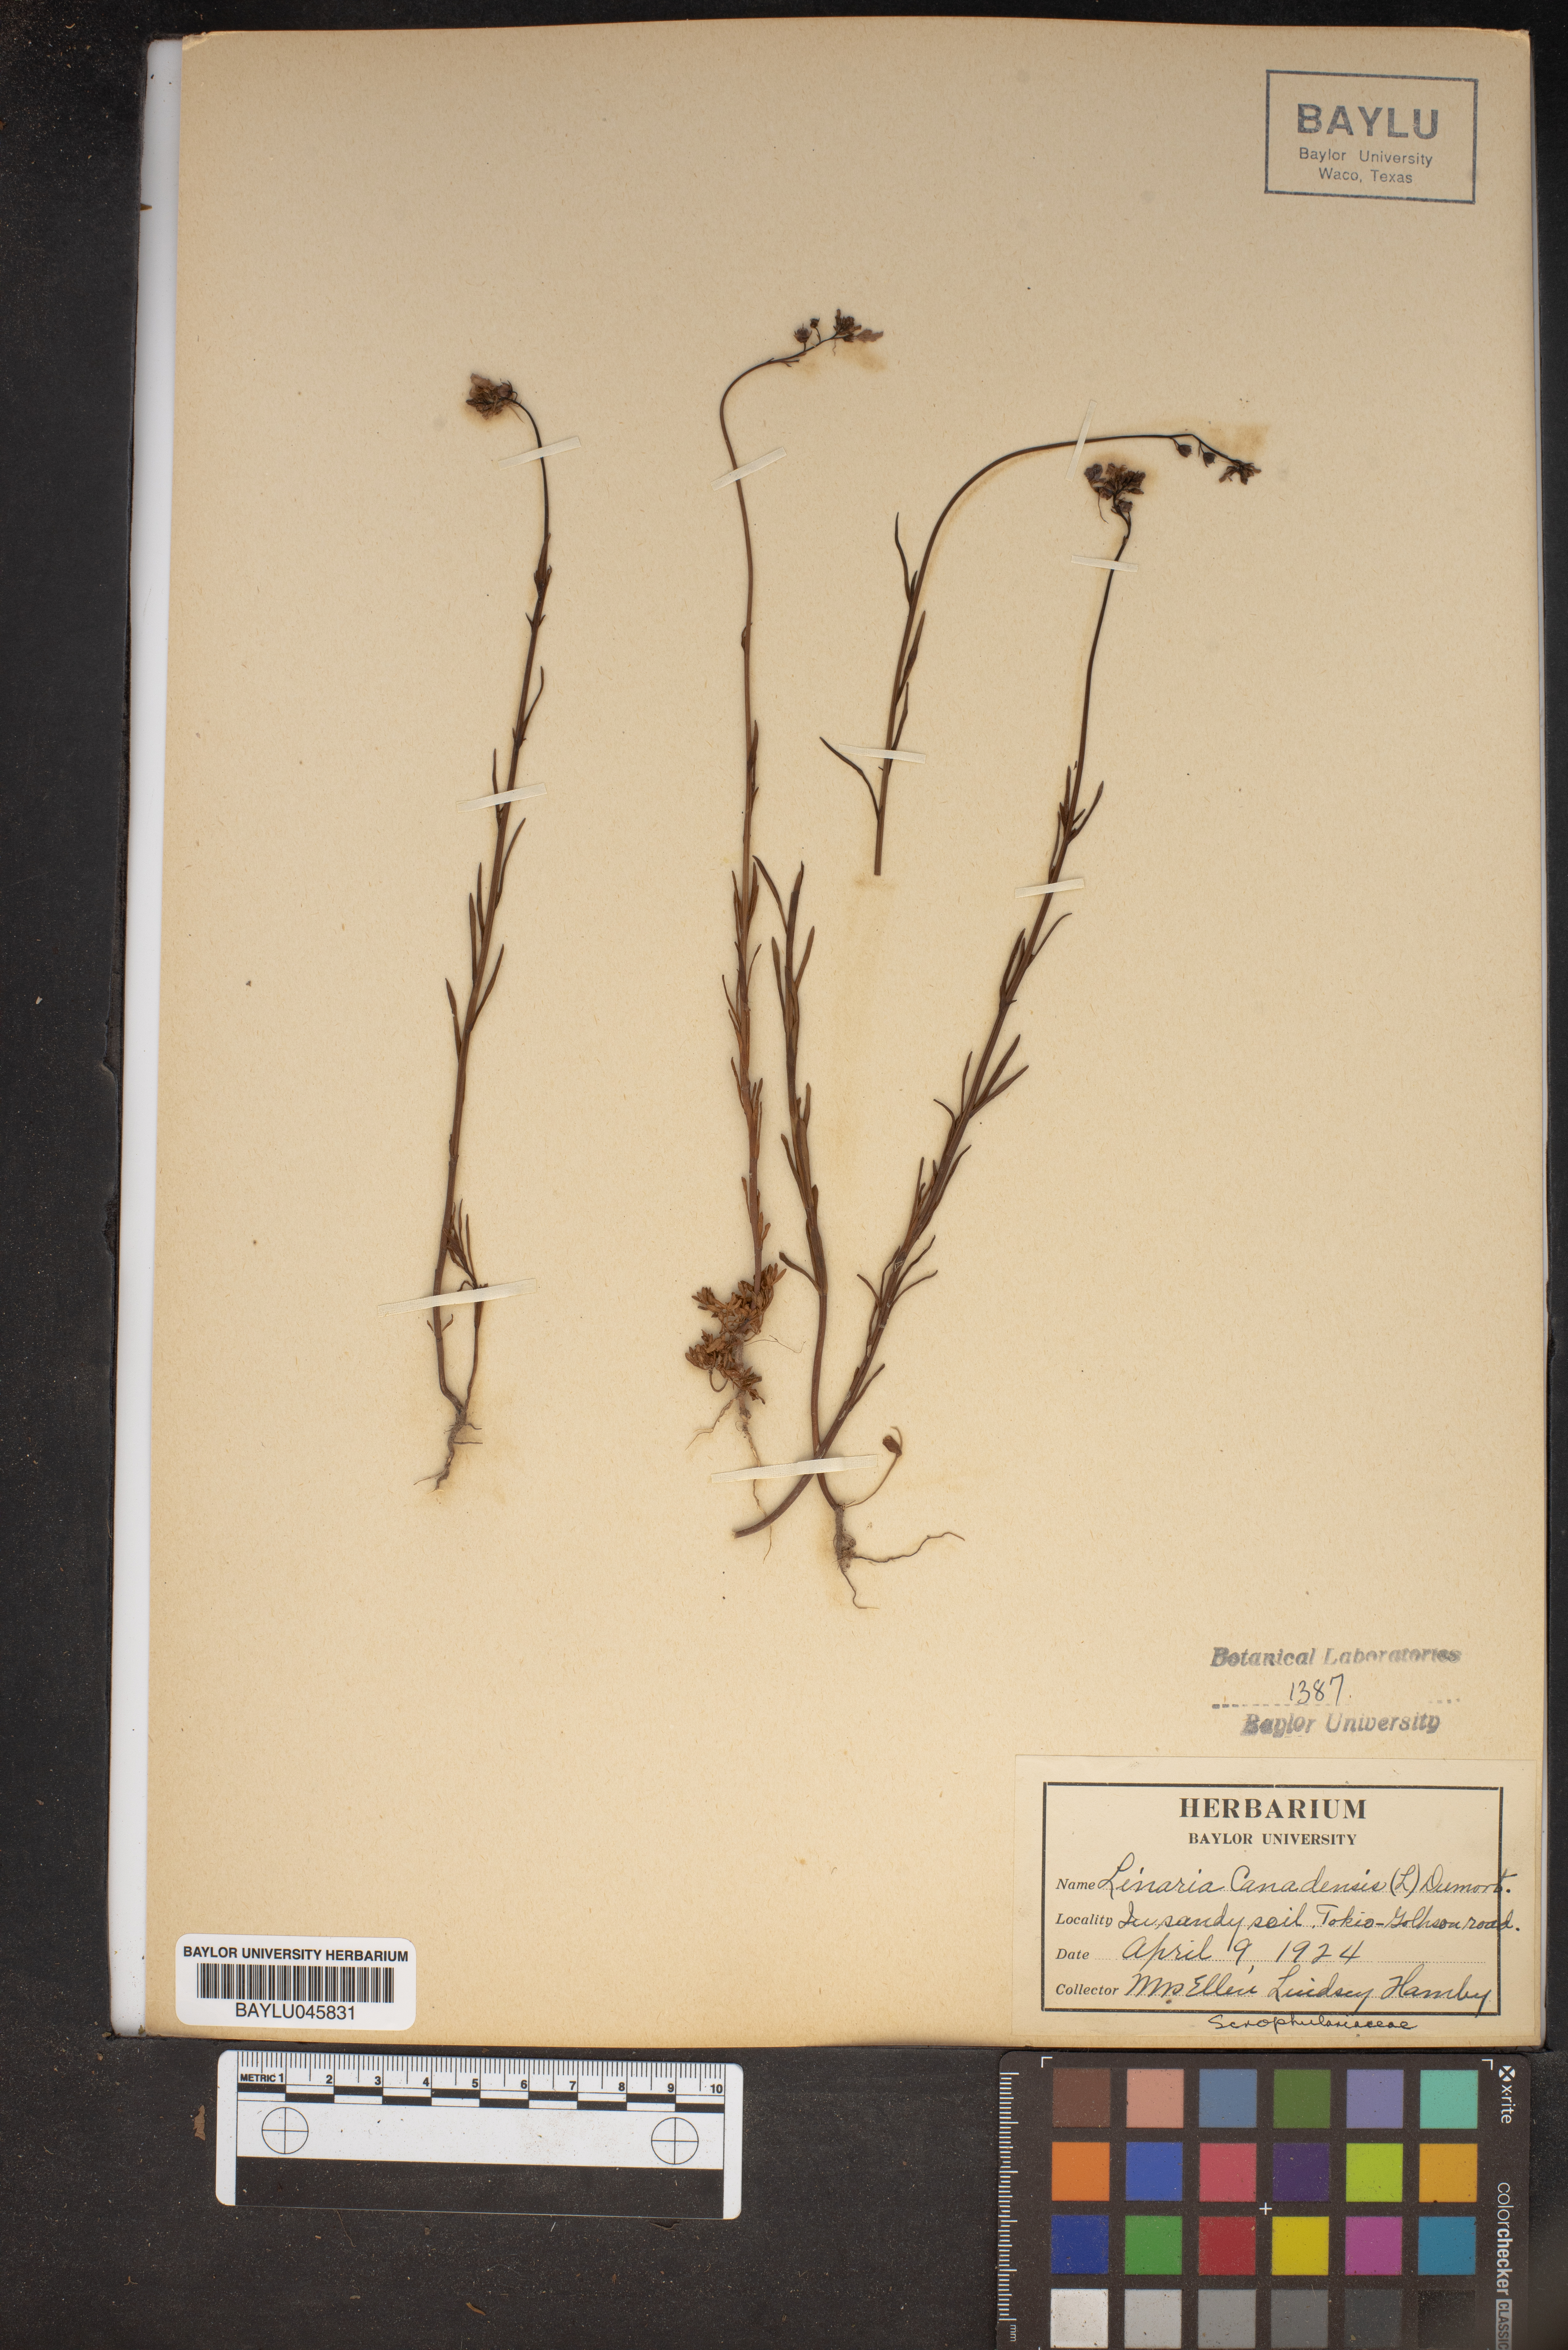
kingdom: Plantae
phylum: Tracheophyta
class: Magnoliopsida
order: Lamiales
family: Plantaginaceae
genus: Nuttallanthus
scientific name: Nuttallanthus canadensis
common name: Blue toadflax
